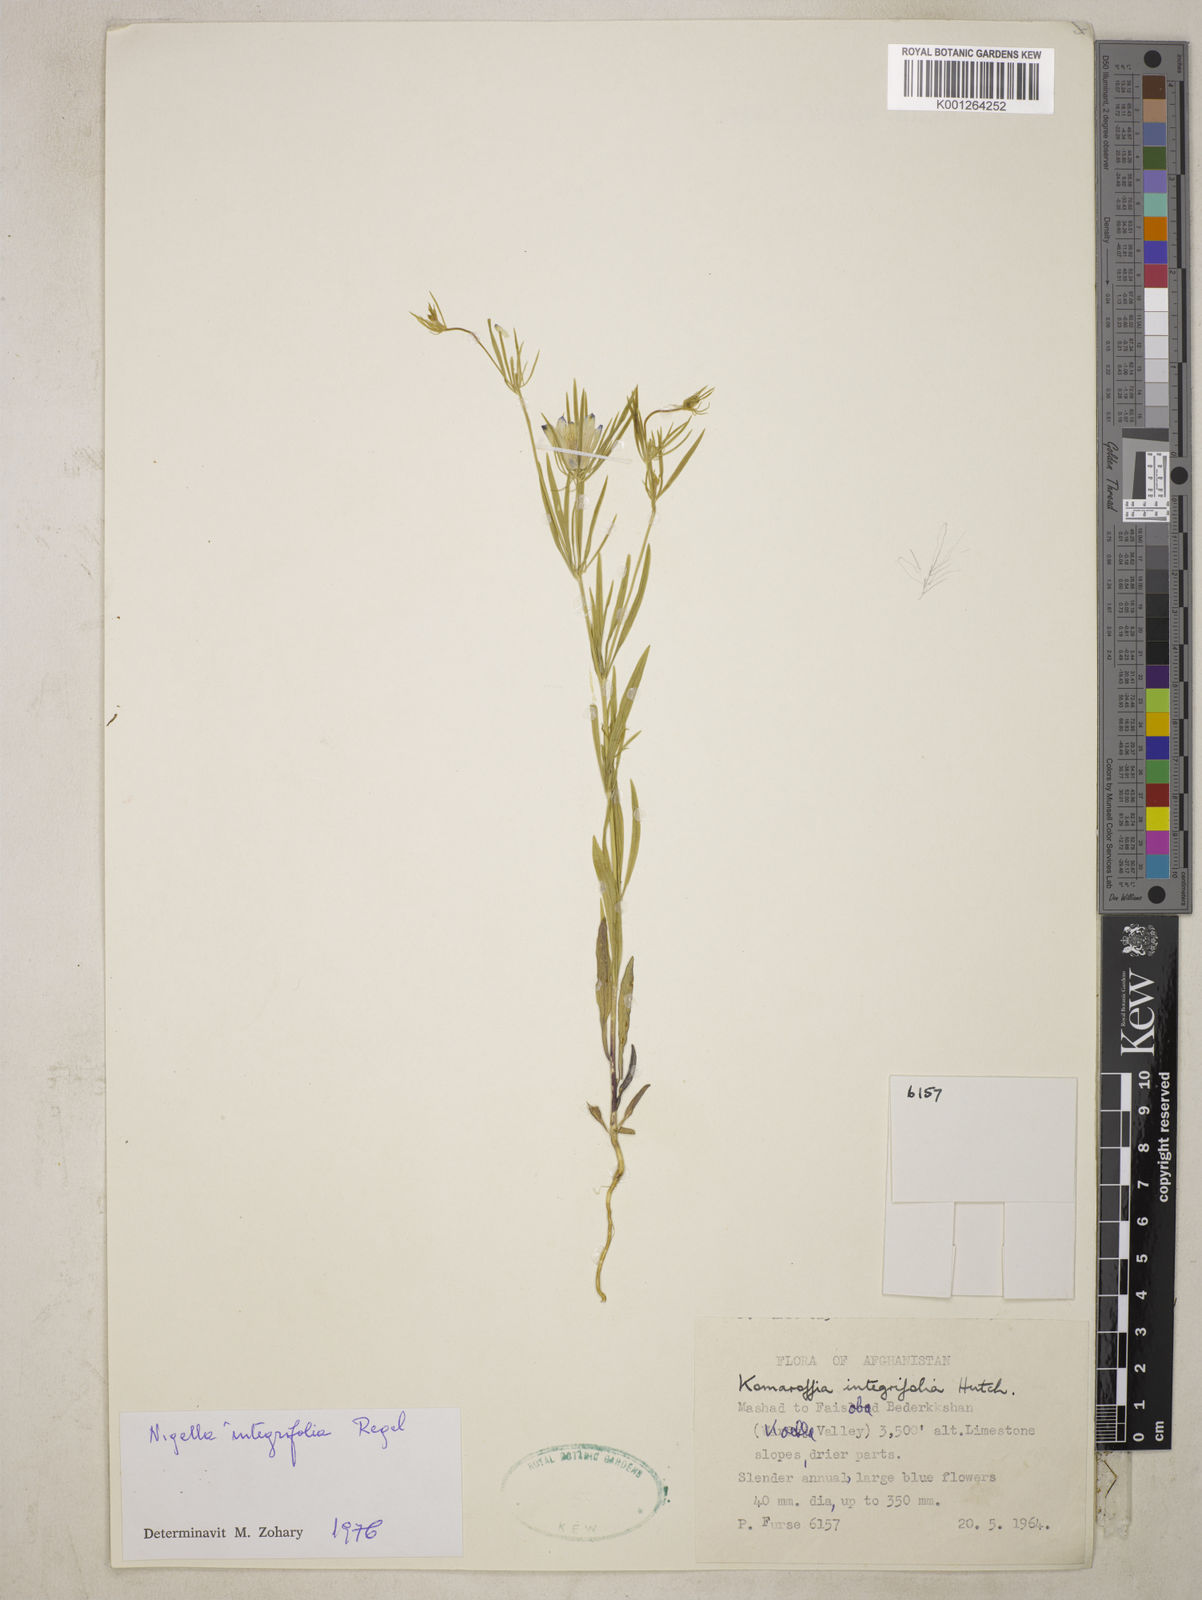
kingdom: Plantae
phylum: Tracheophyta
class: Magnoliopsida
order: Ranunculales
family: Ranunculaceae
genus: Komaroffia
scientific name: Komaroffia integrifolia
